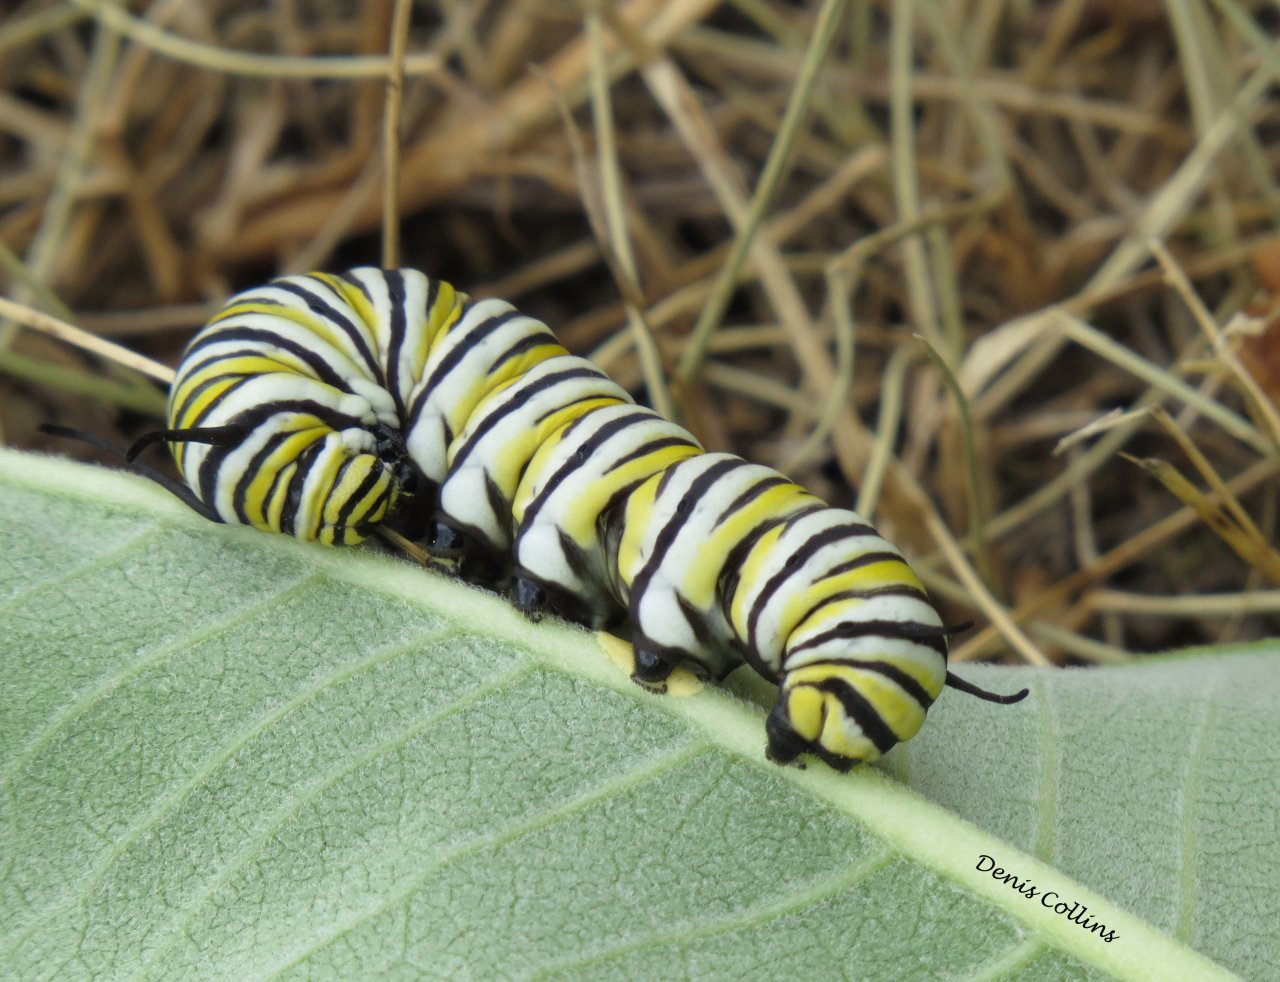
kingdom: Animalia
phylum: Arthropoda
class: Insecta
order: Lepidoptera
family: Nymphalidae
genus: Danaus
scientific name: Danaus plexippus
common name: Monarch
